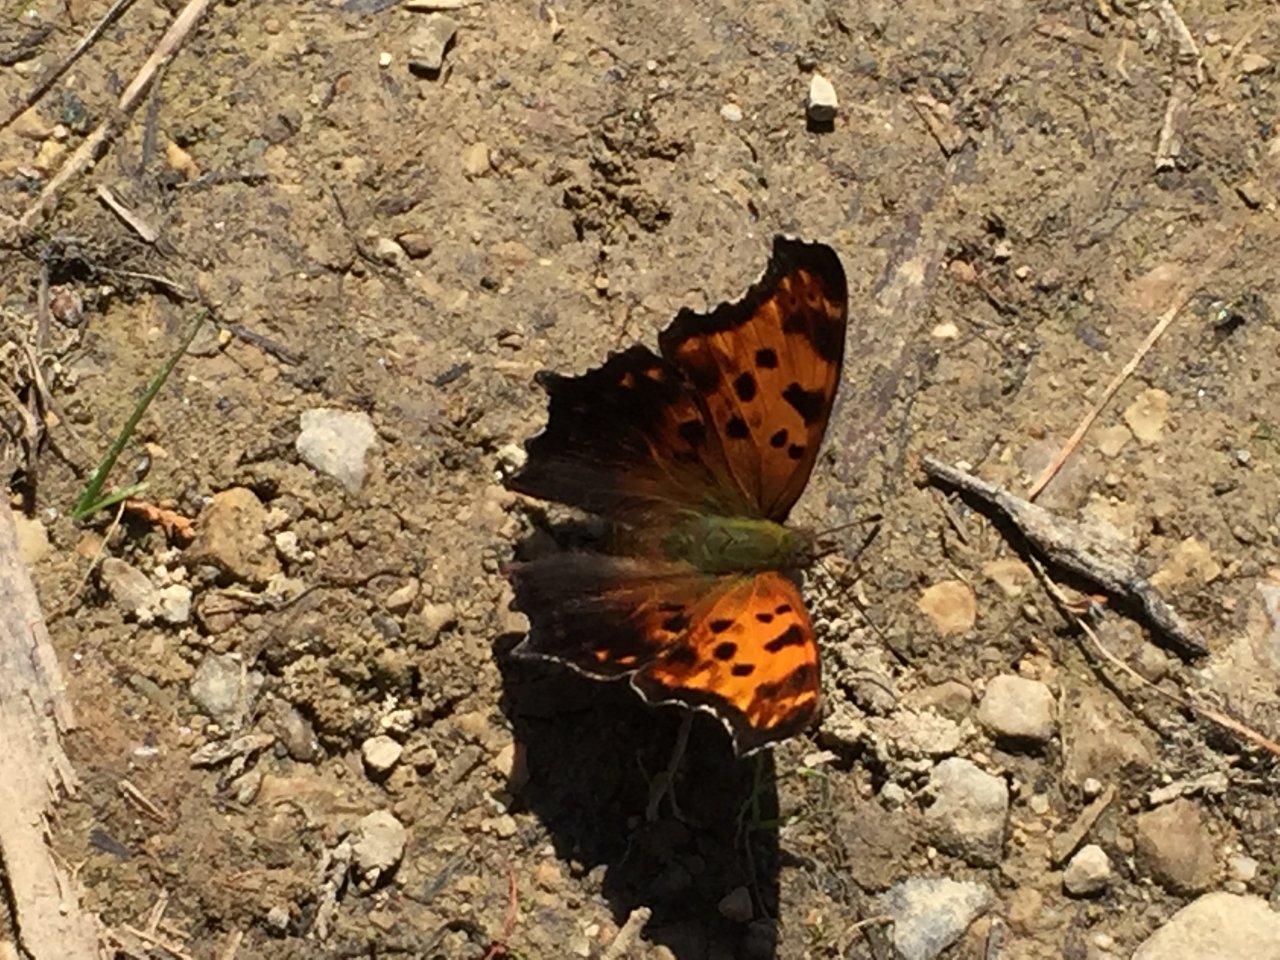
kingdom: Animalia
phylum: Arthropoda
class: Insecta
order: Lepidoptera
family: Nymphalidae
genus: Polygonia
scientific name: Polygonia comma
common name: Eastern Comma
